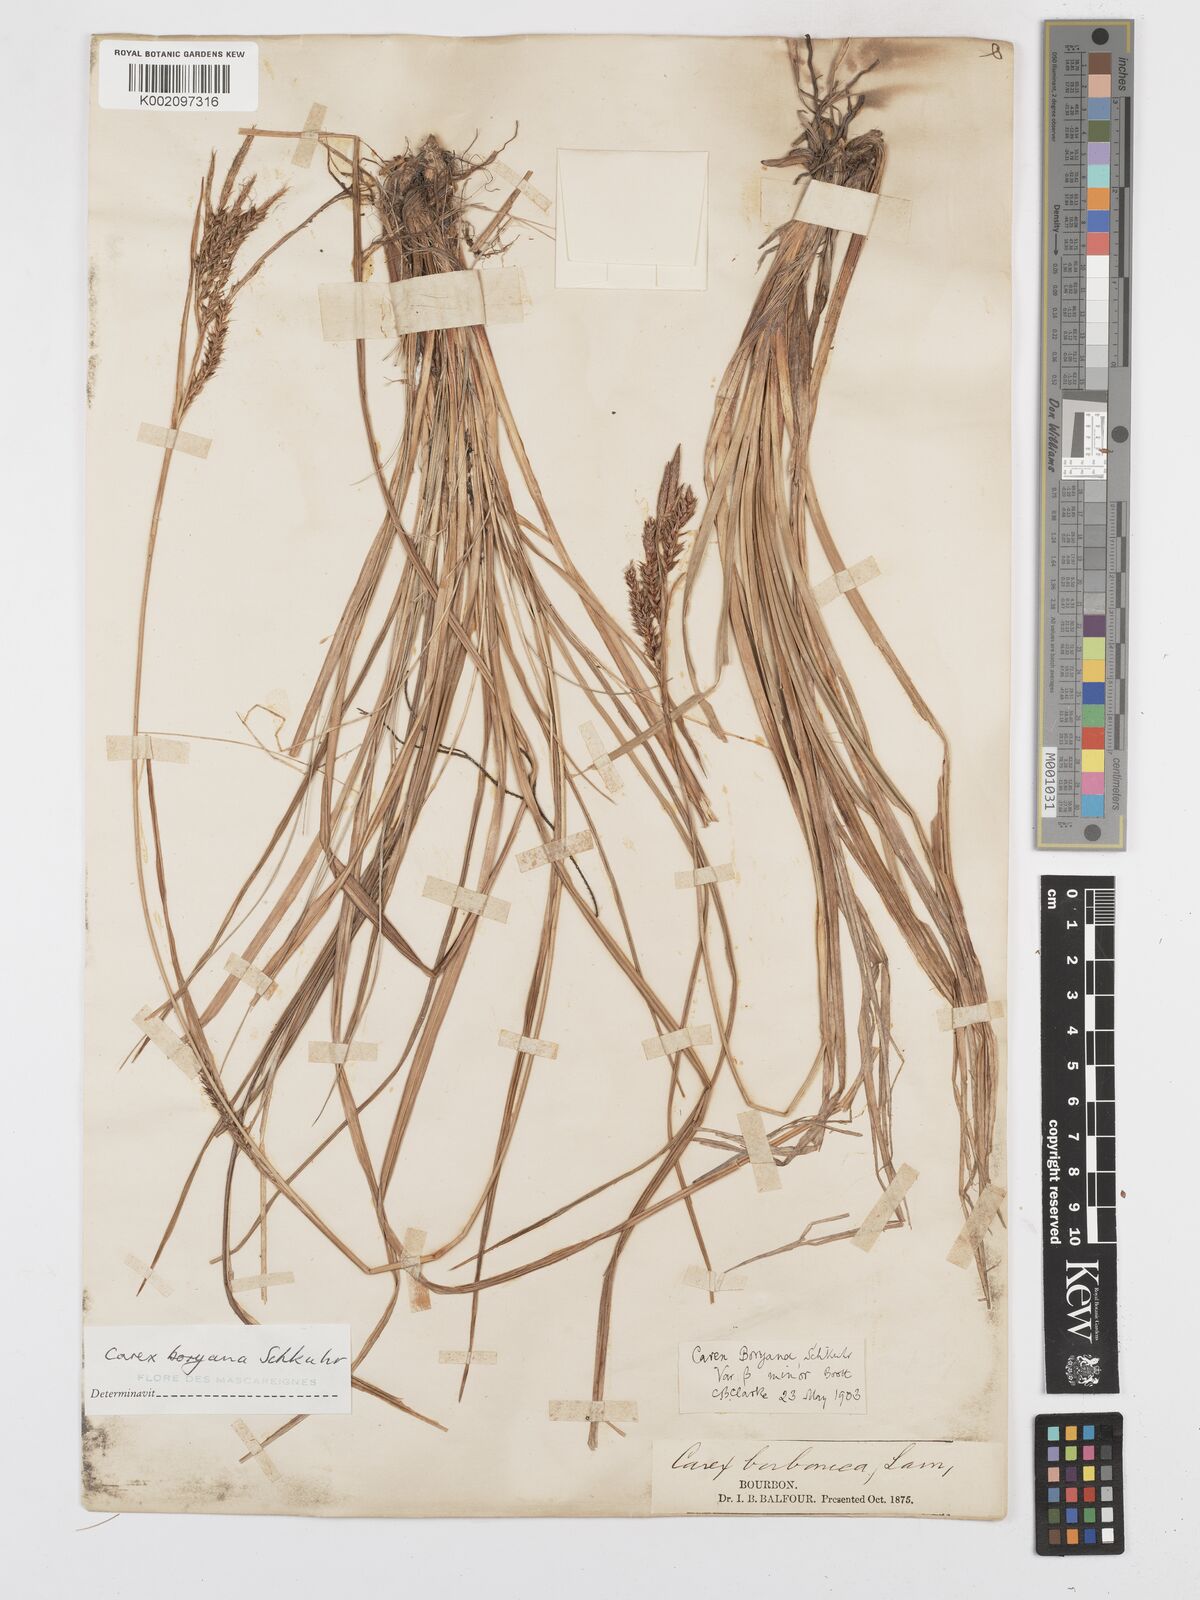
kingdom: Plantae
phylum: Tracheophyta
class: Liliopsida
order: Poales
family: Cyperaceae
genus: Carex
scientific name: Carex boryana
